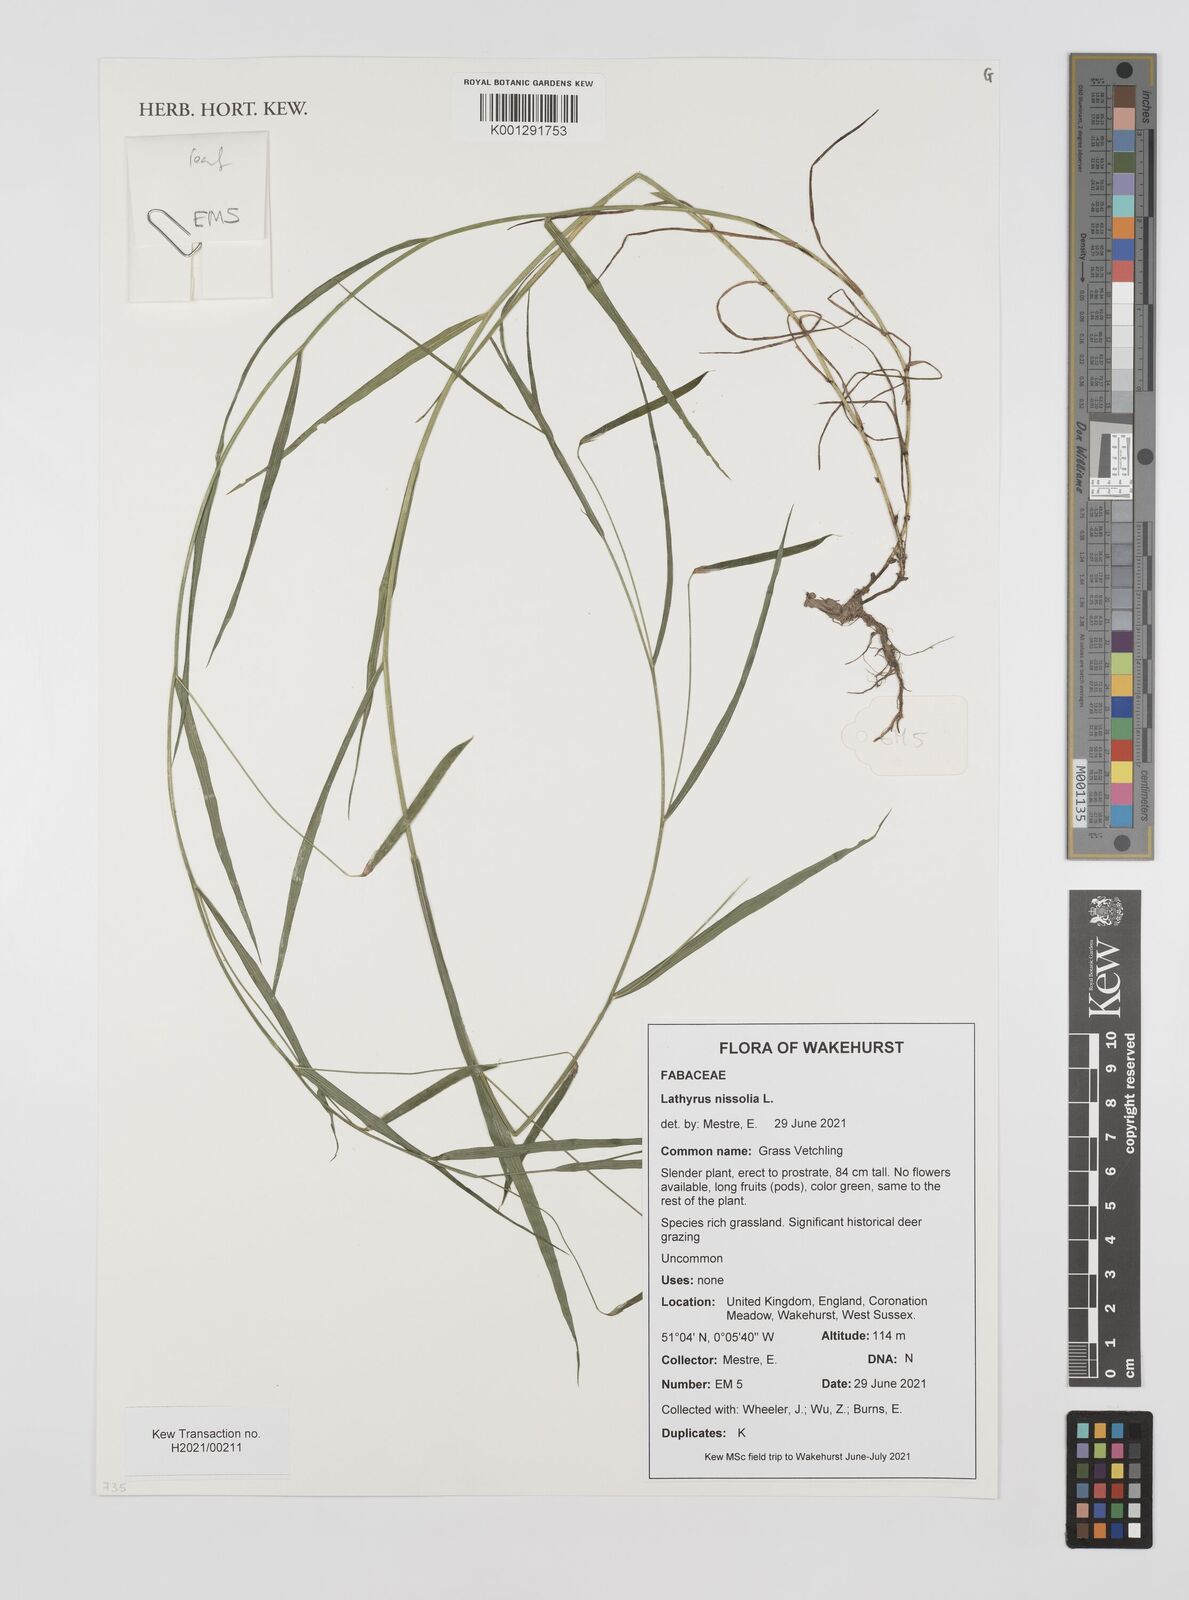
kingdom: Plantae
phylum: Tracheophyta
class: Magnoliopsida
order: Fabales
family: Fabaceae
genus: Lathyrus
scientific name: Lathyrus nissolia
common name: Grass vetchling
